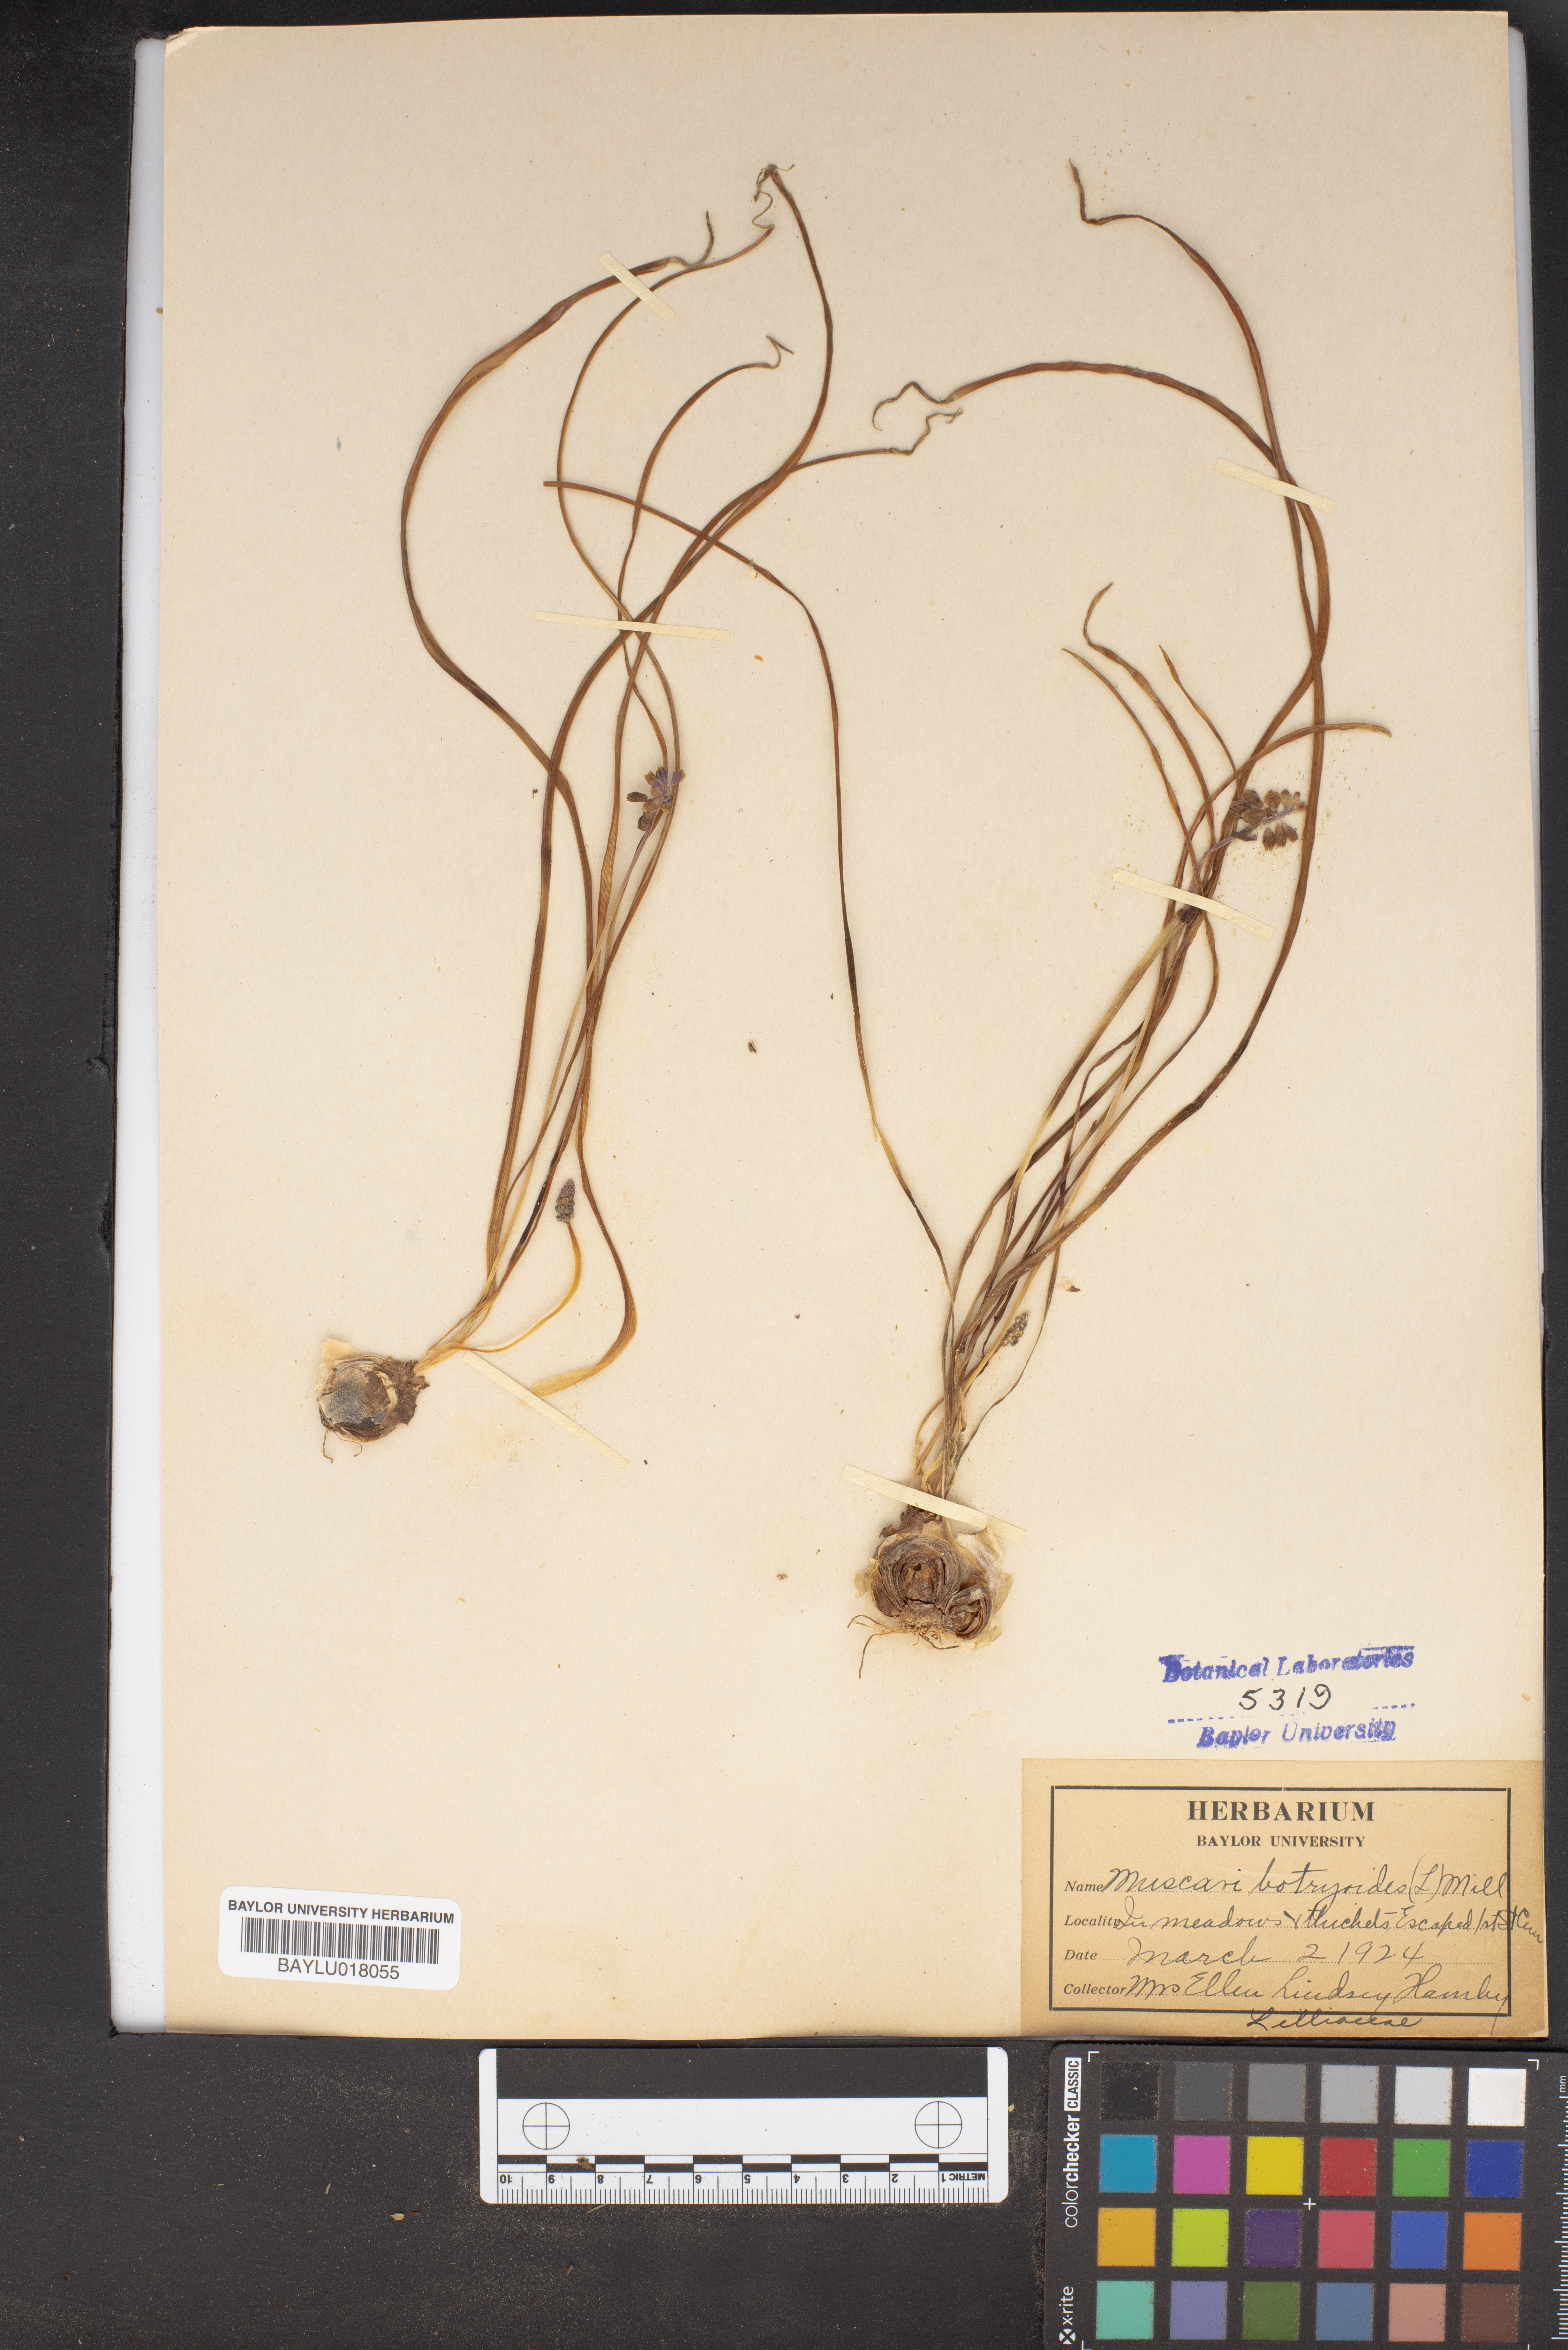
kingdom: Plantae
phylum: Tracheophyta
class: Liliopsida
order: Asparagales
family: Asparagaceae
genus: Muscari
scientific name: Muscari botryoides
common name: Compact grape-hyacinth
